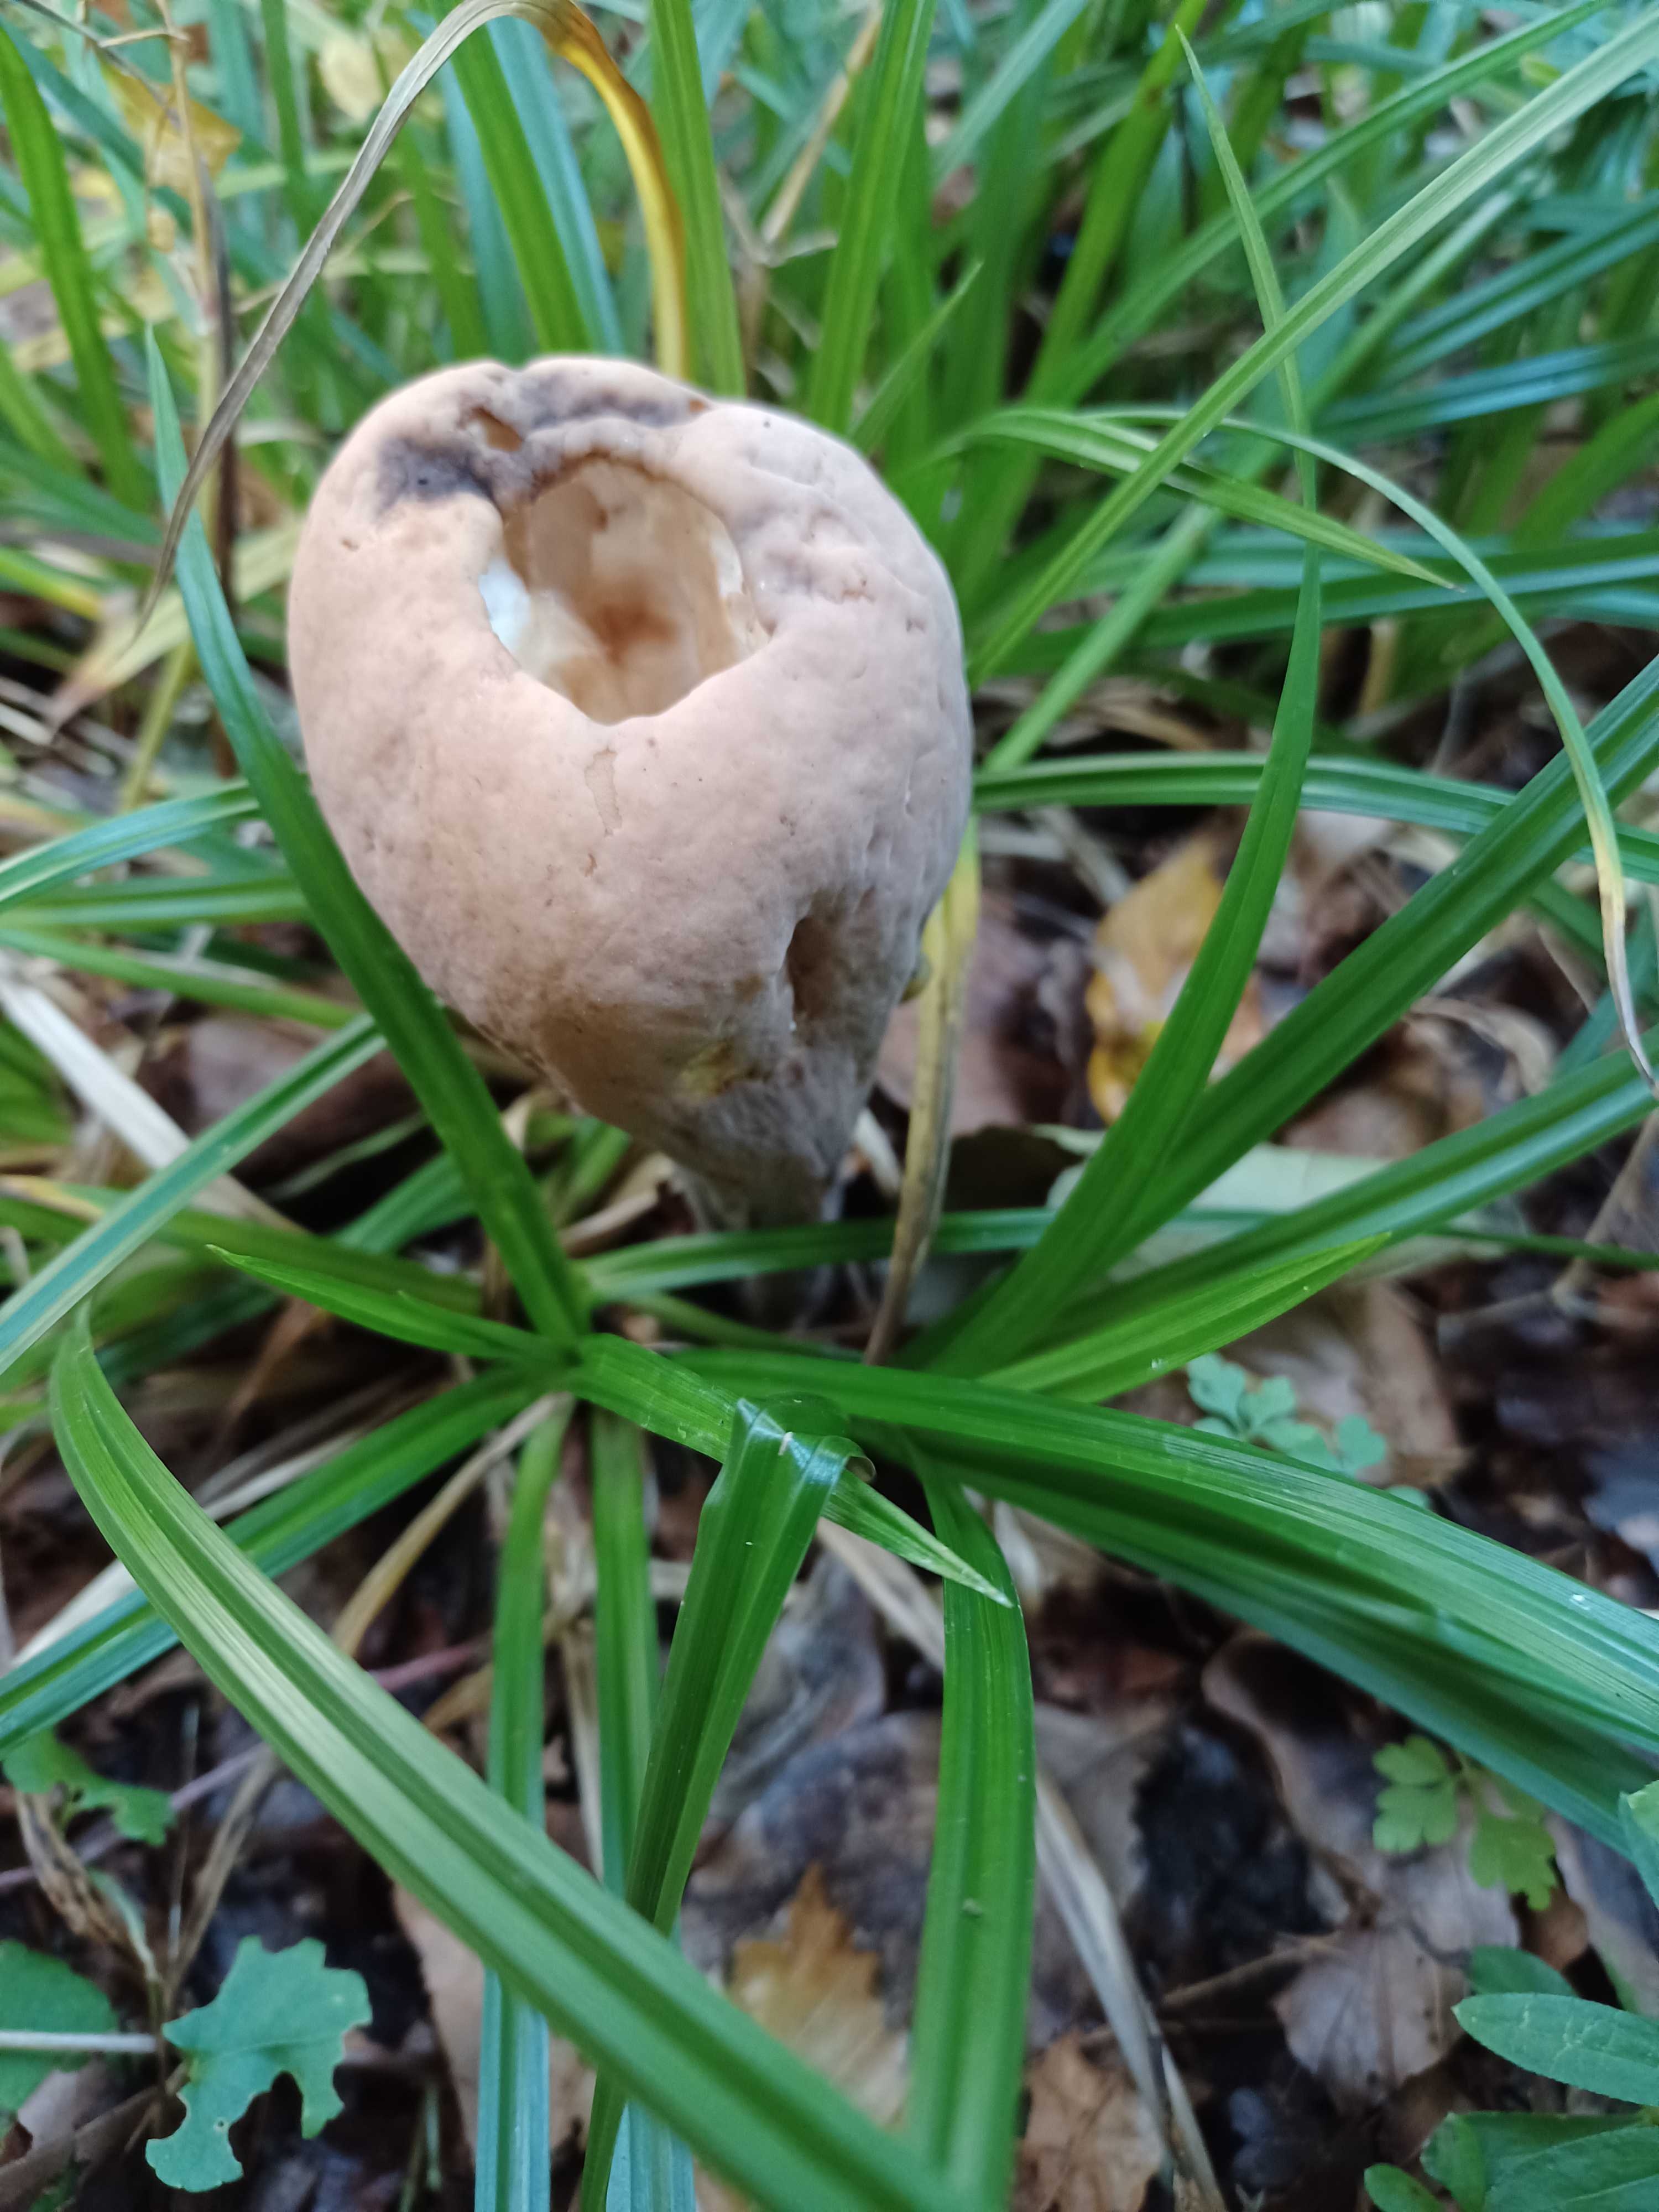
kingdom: Fungi
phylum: Basidiomycota
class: Agaricomycetes
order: Gomphales
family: Clavariadelphaceae
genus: Clavariadelphus
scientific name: Clavariadelphus pistillaris
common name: herkules-kæmpekølle
